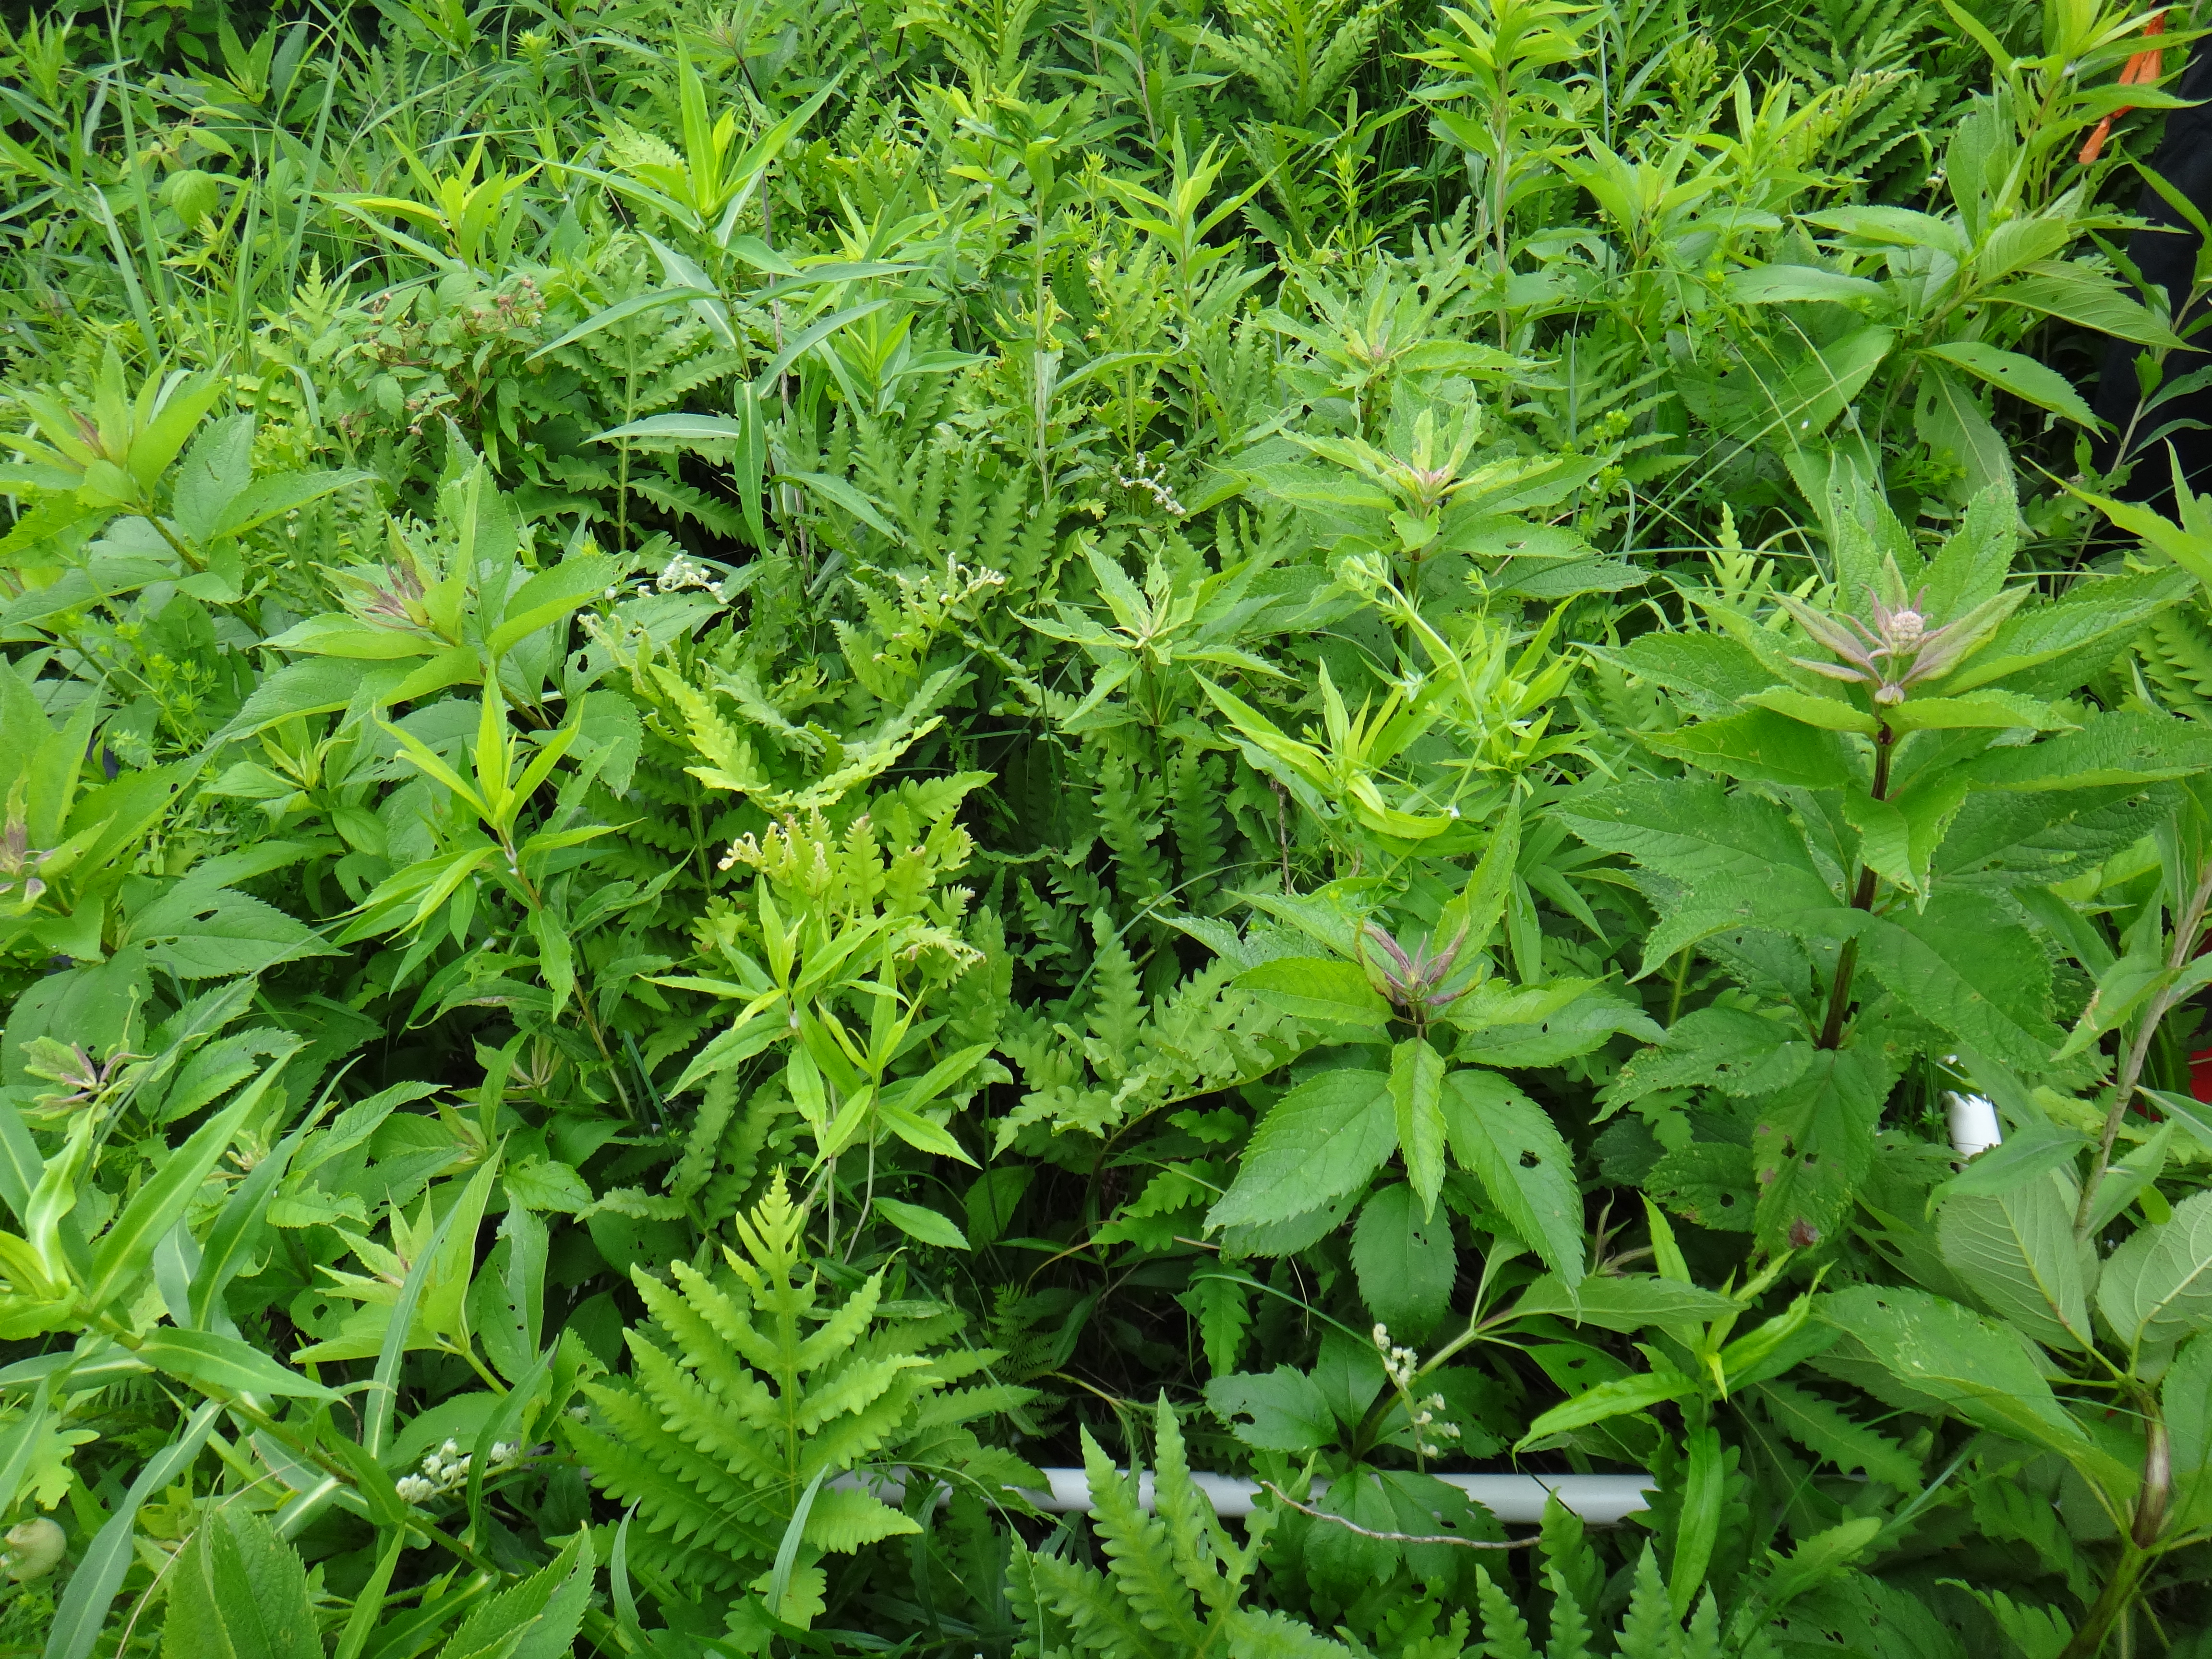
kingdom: Plantae
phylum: Tracheophyta
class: Magnoliopsida
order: Asterales
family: Campanulaceae
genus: Palustricodon
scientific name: Palustricodon aparinoides
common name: Bedstraw bellflower
